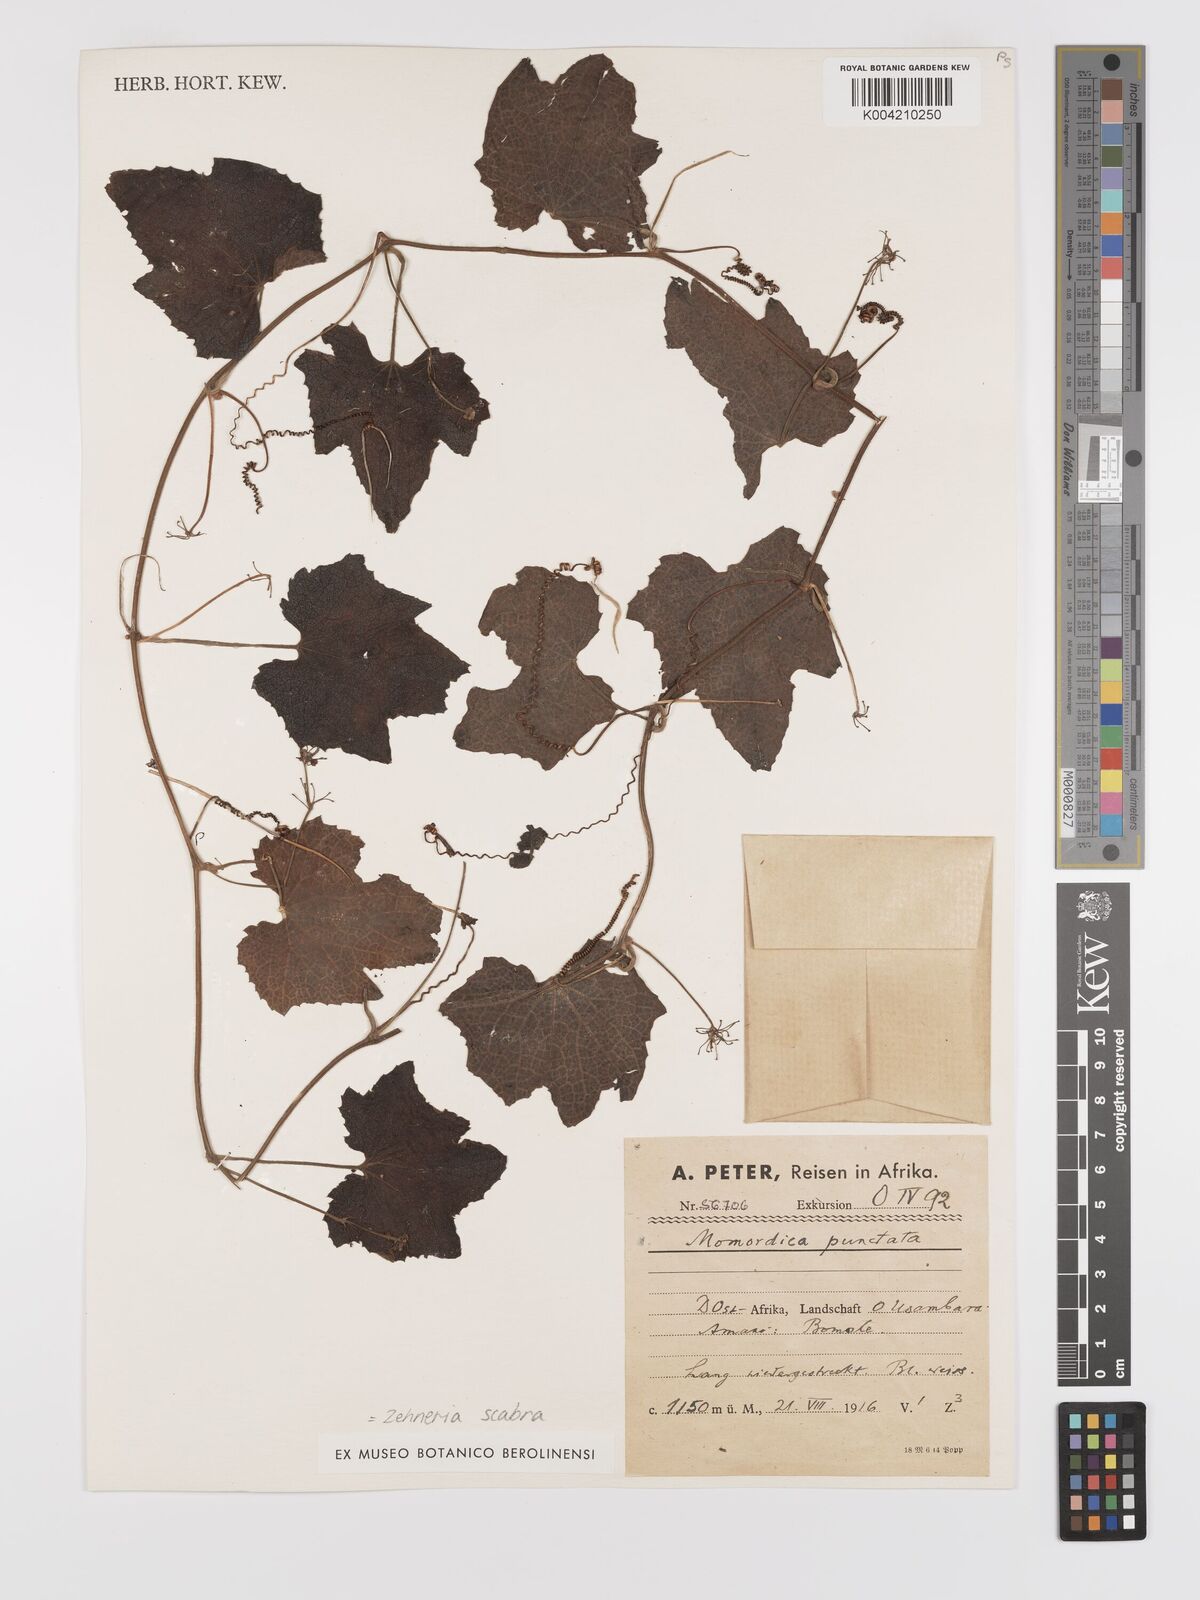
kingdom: Plantae
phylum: Tracheophyta
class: Magnoliopsida
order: Cucurbitales
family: Cucurbitaceae
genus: Zehneria
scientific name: Zehneria scabra
